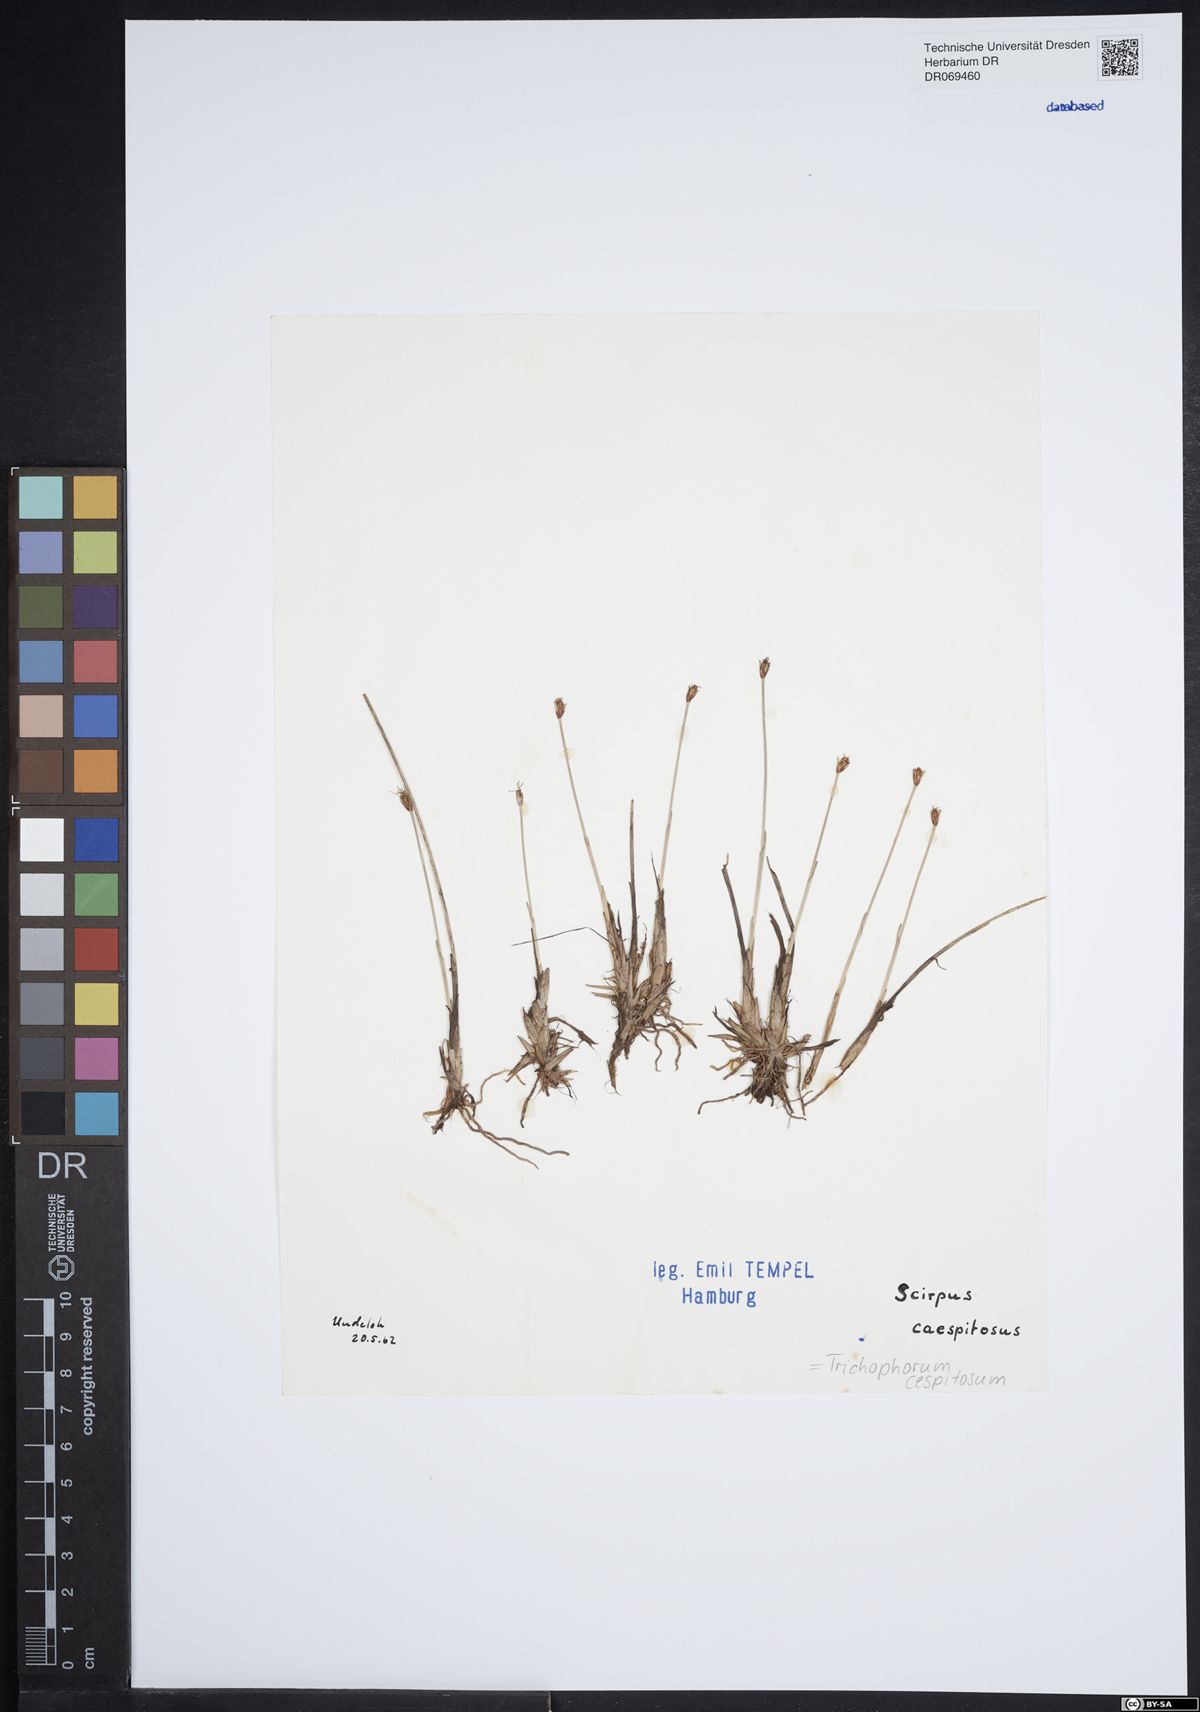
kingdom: Plantae
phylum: Tracheophyta
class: Liliopsida
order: Poales
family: Cyperaceae
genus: Trichophorum
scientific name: Trichophorum cespitosum
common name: Cespitose bulrush
